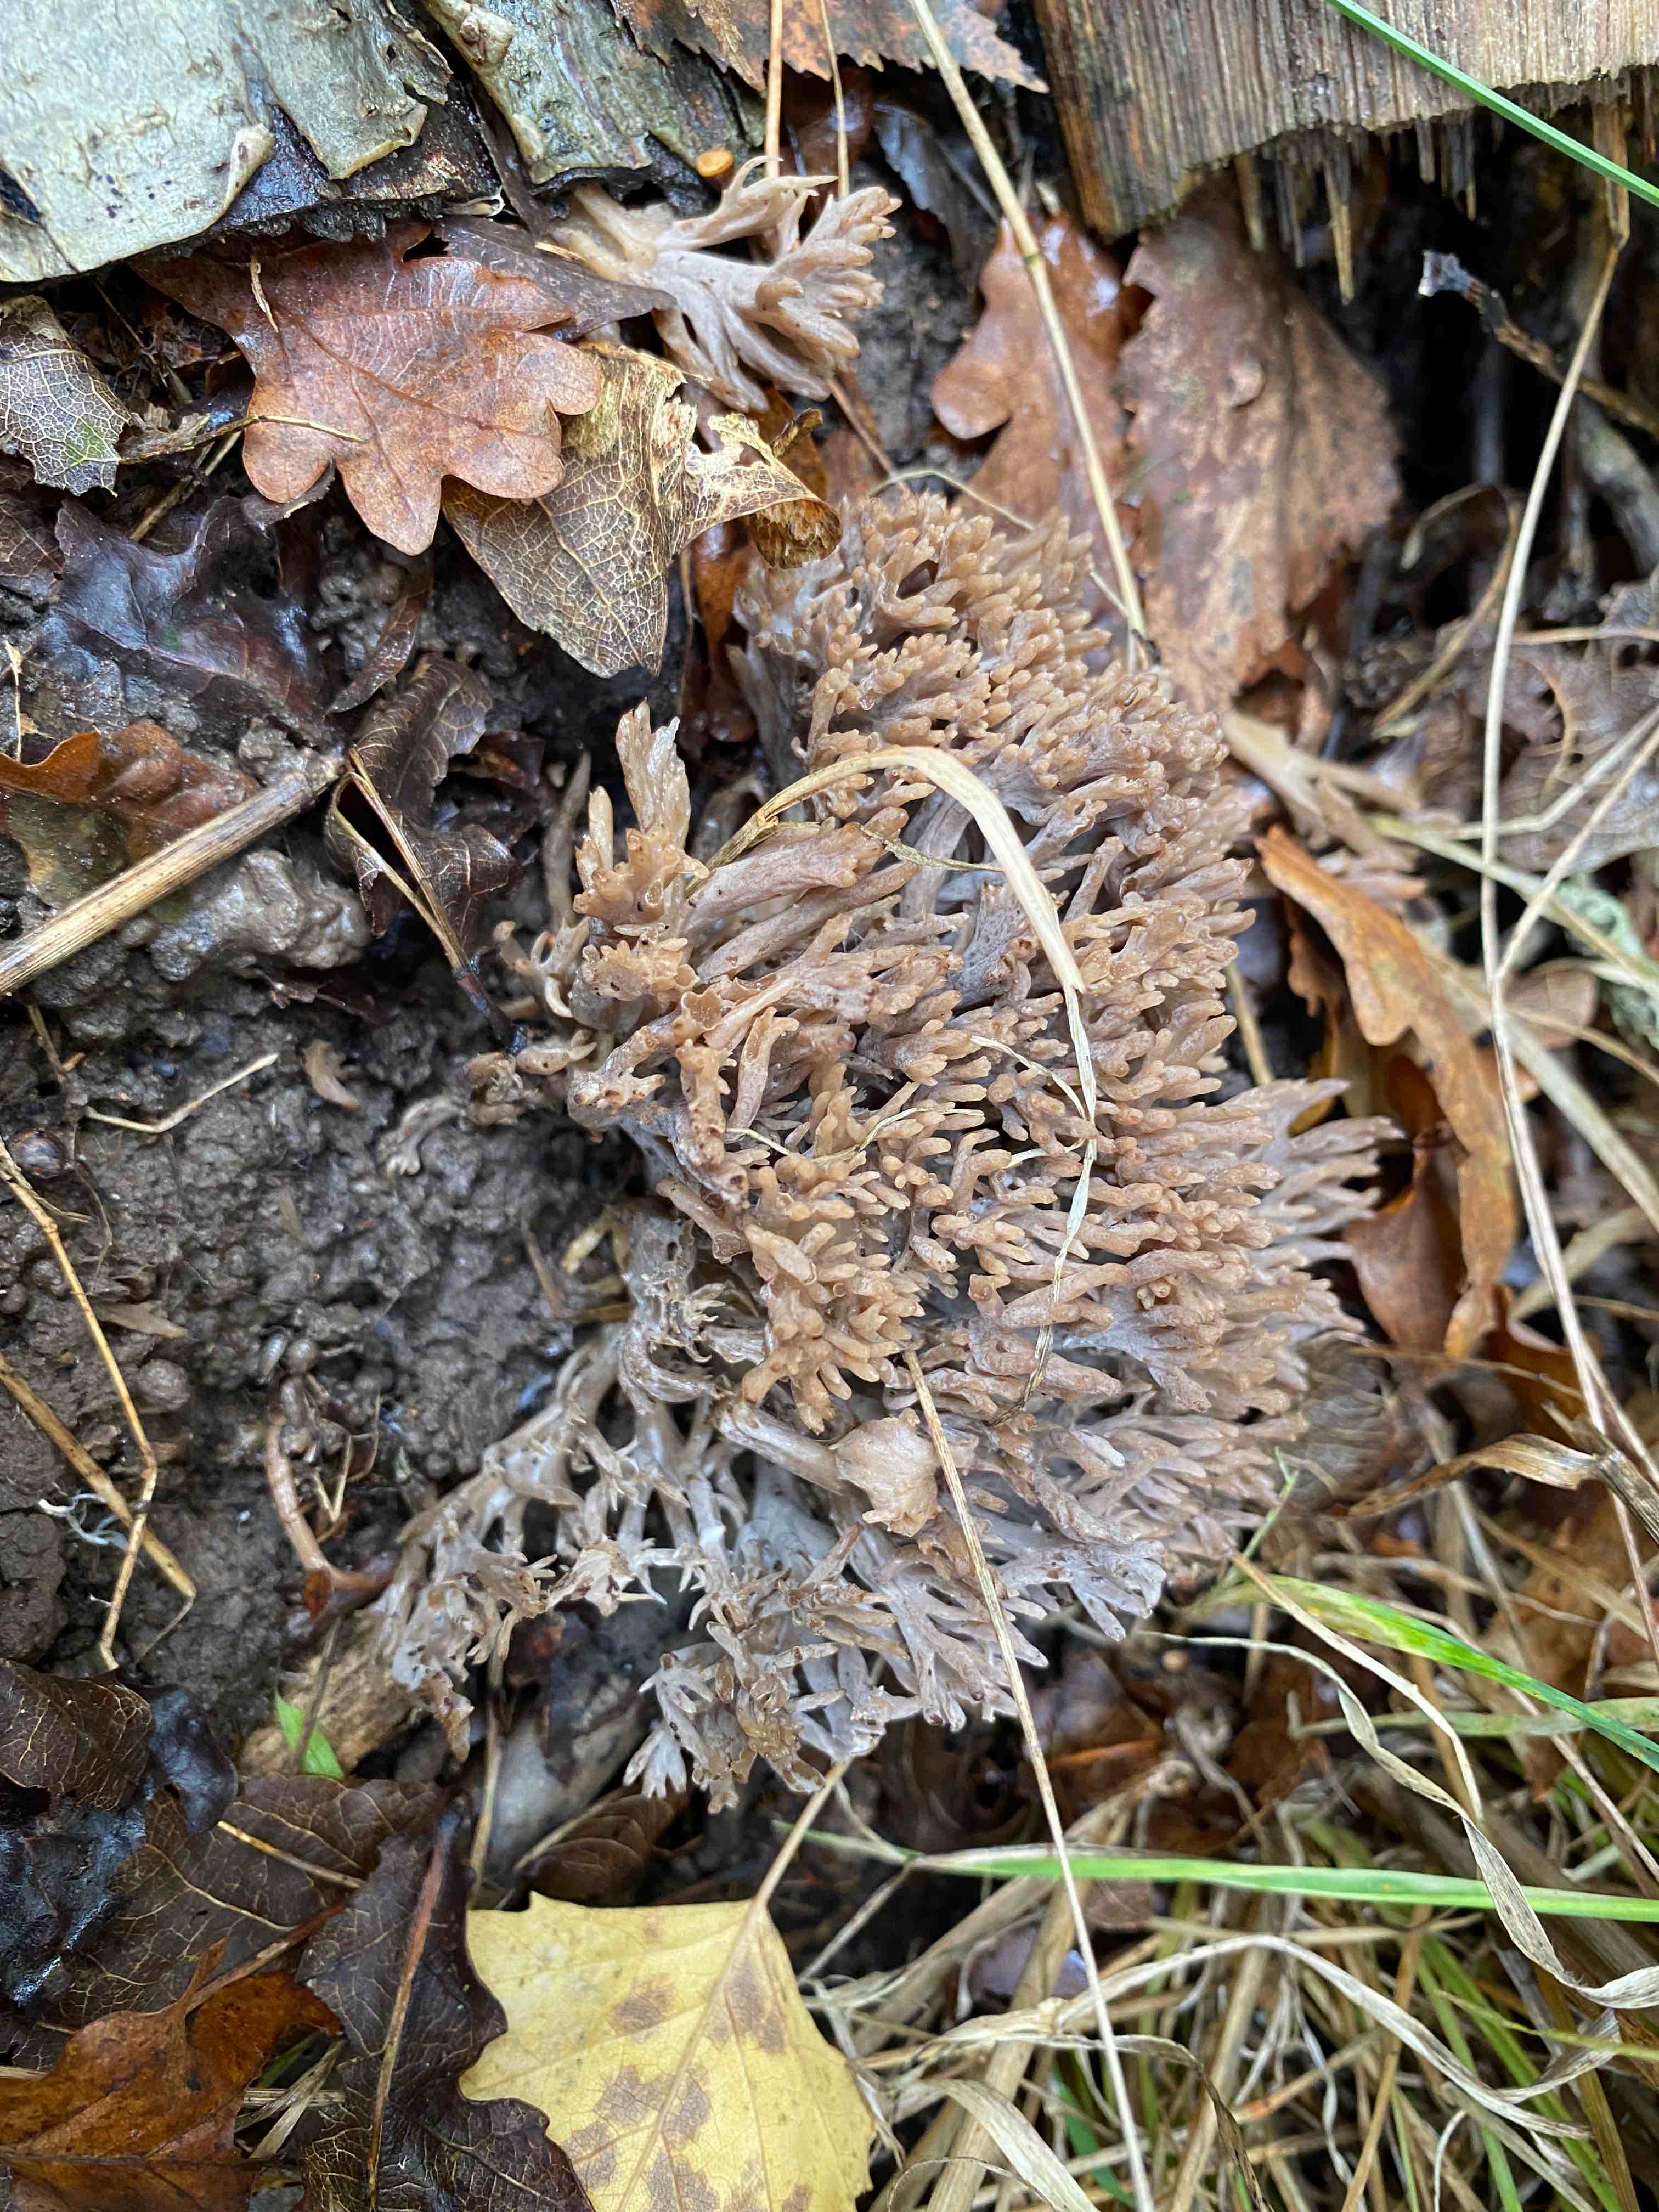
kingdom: Fungi
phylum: Basidiomycota
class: Agaricomycetes
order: Cantharellales
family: Hydnaceae
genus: Clavulina
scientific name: Clavulina
